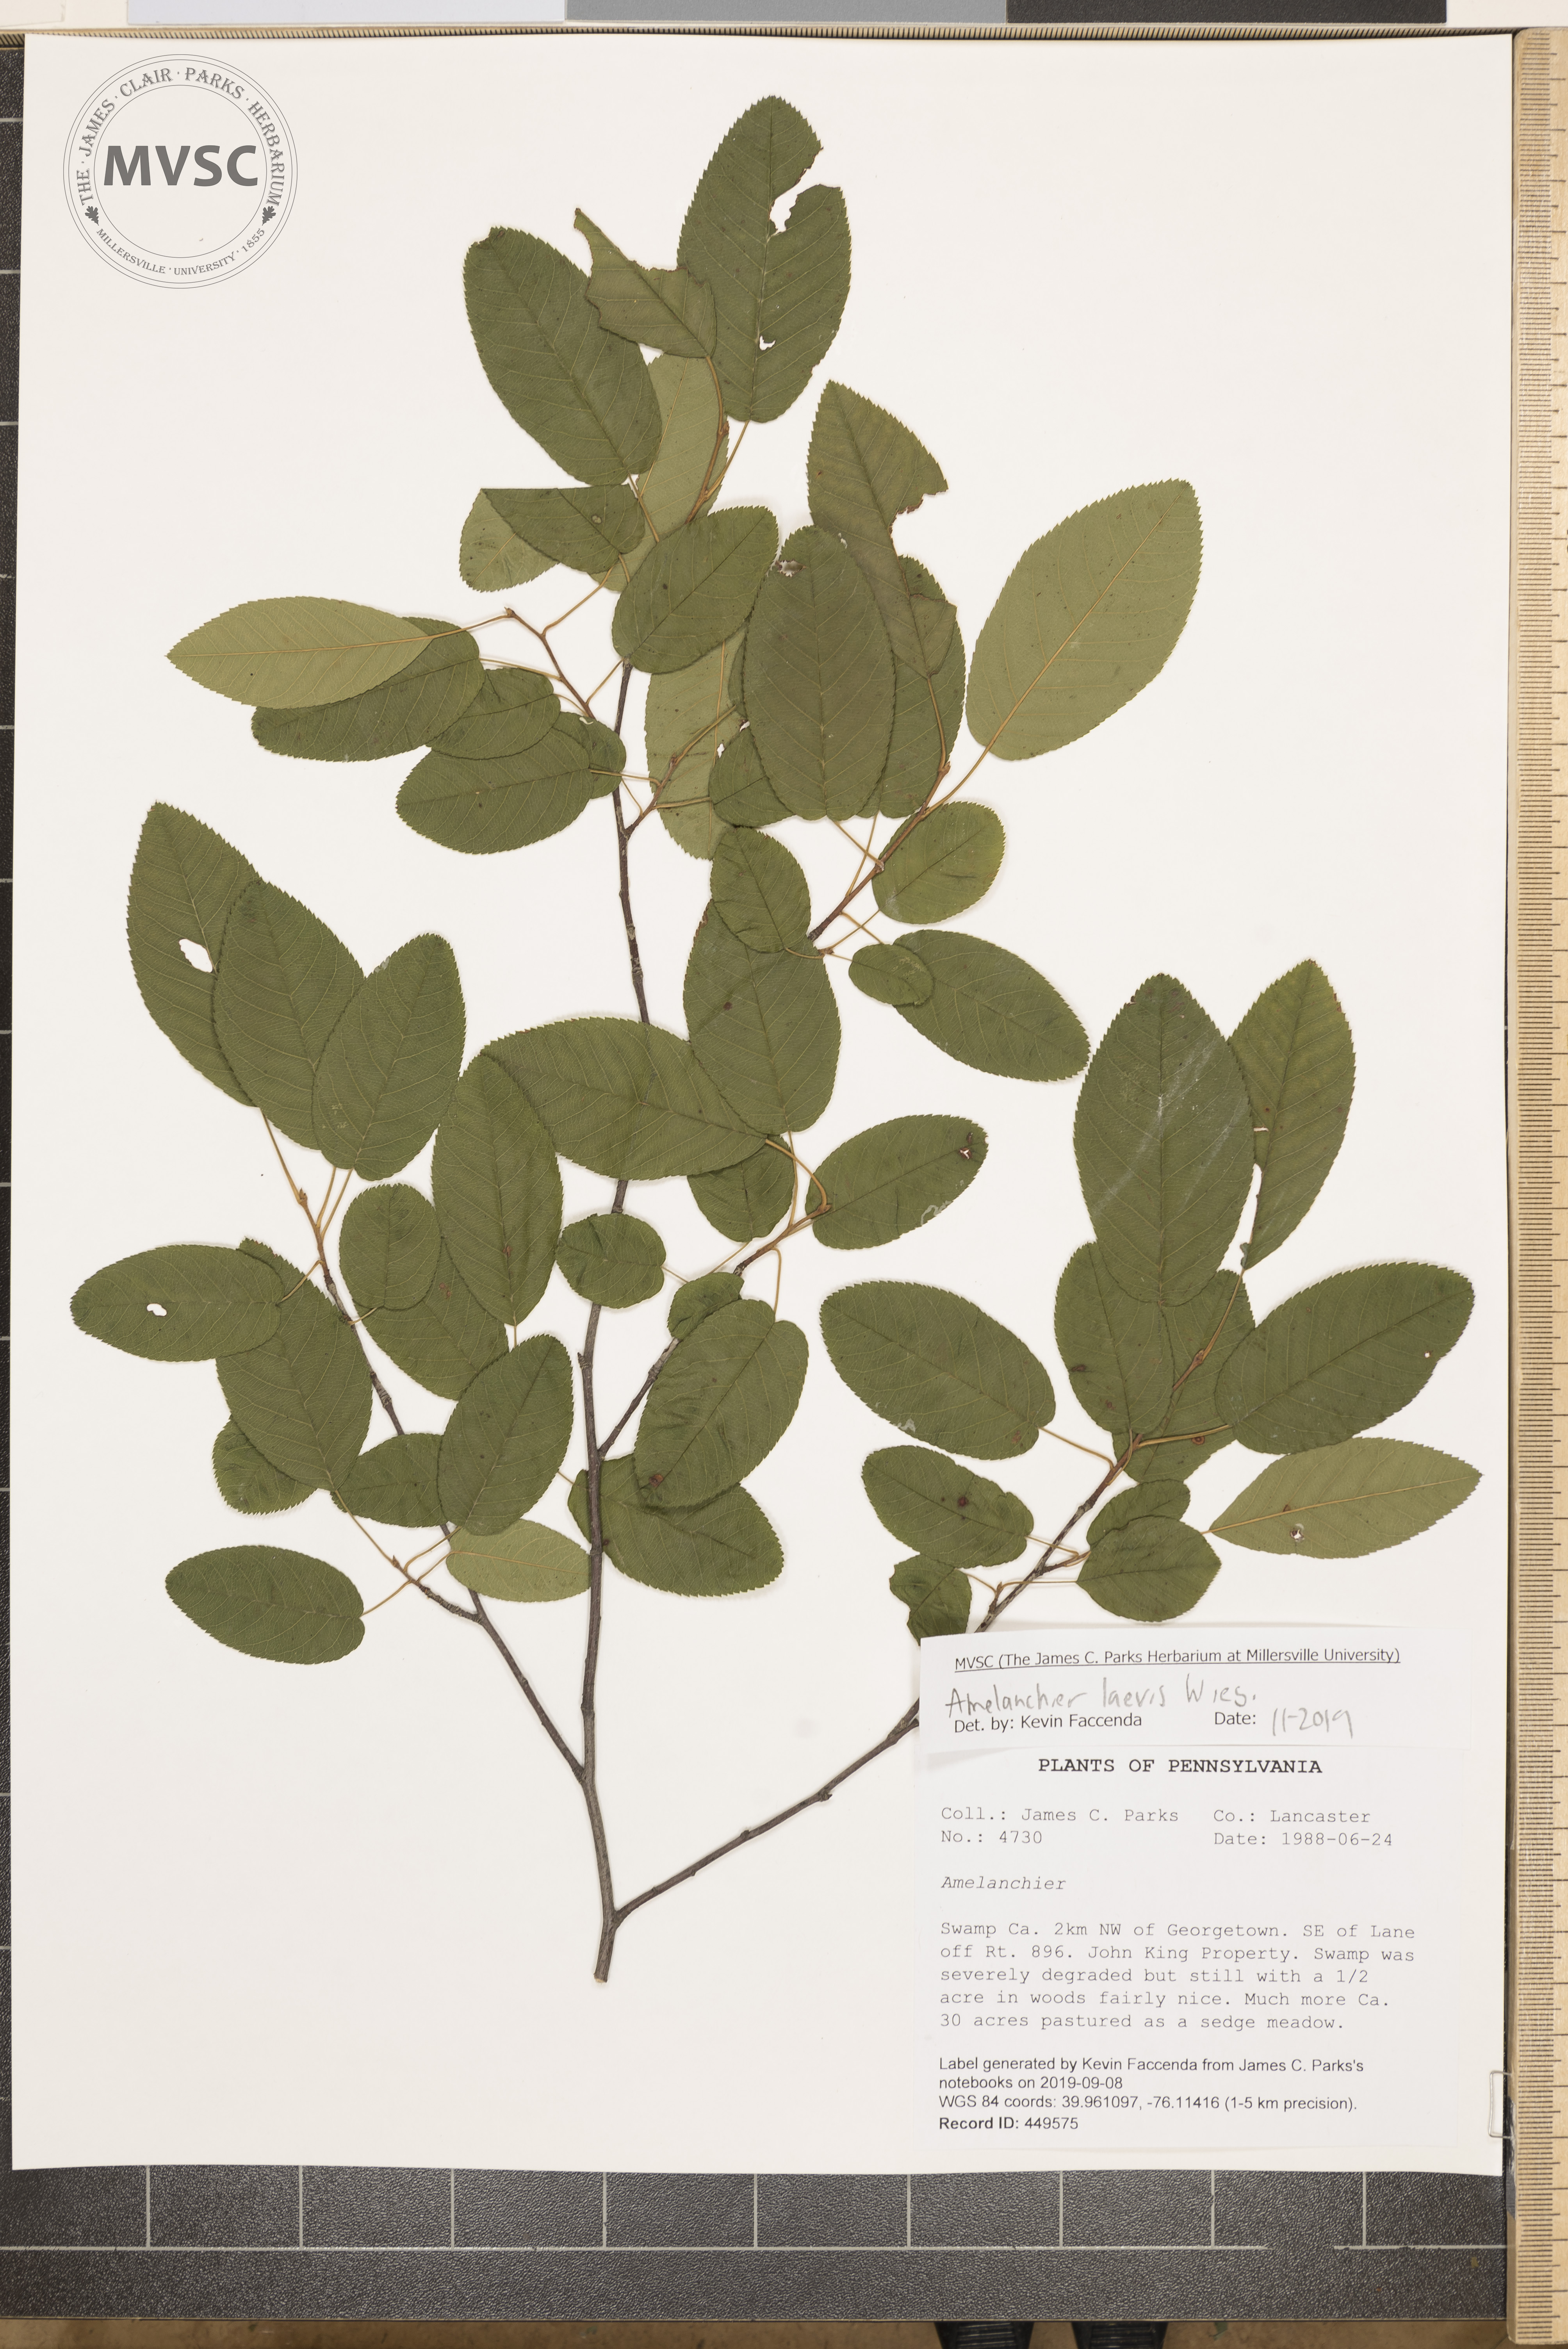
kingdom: Plantae
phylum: Tracheophyta
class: Magnoliopsida
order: Rosales
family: Rosaceae
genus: Amelanchier
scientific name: Amelanchier laevis
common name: Allegheny serviceberry
